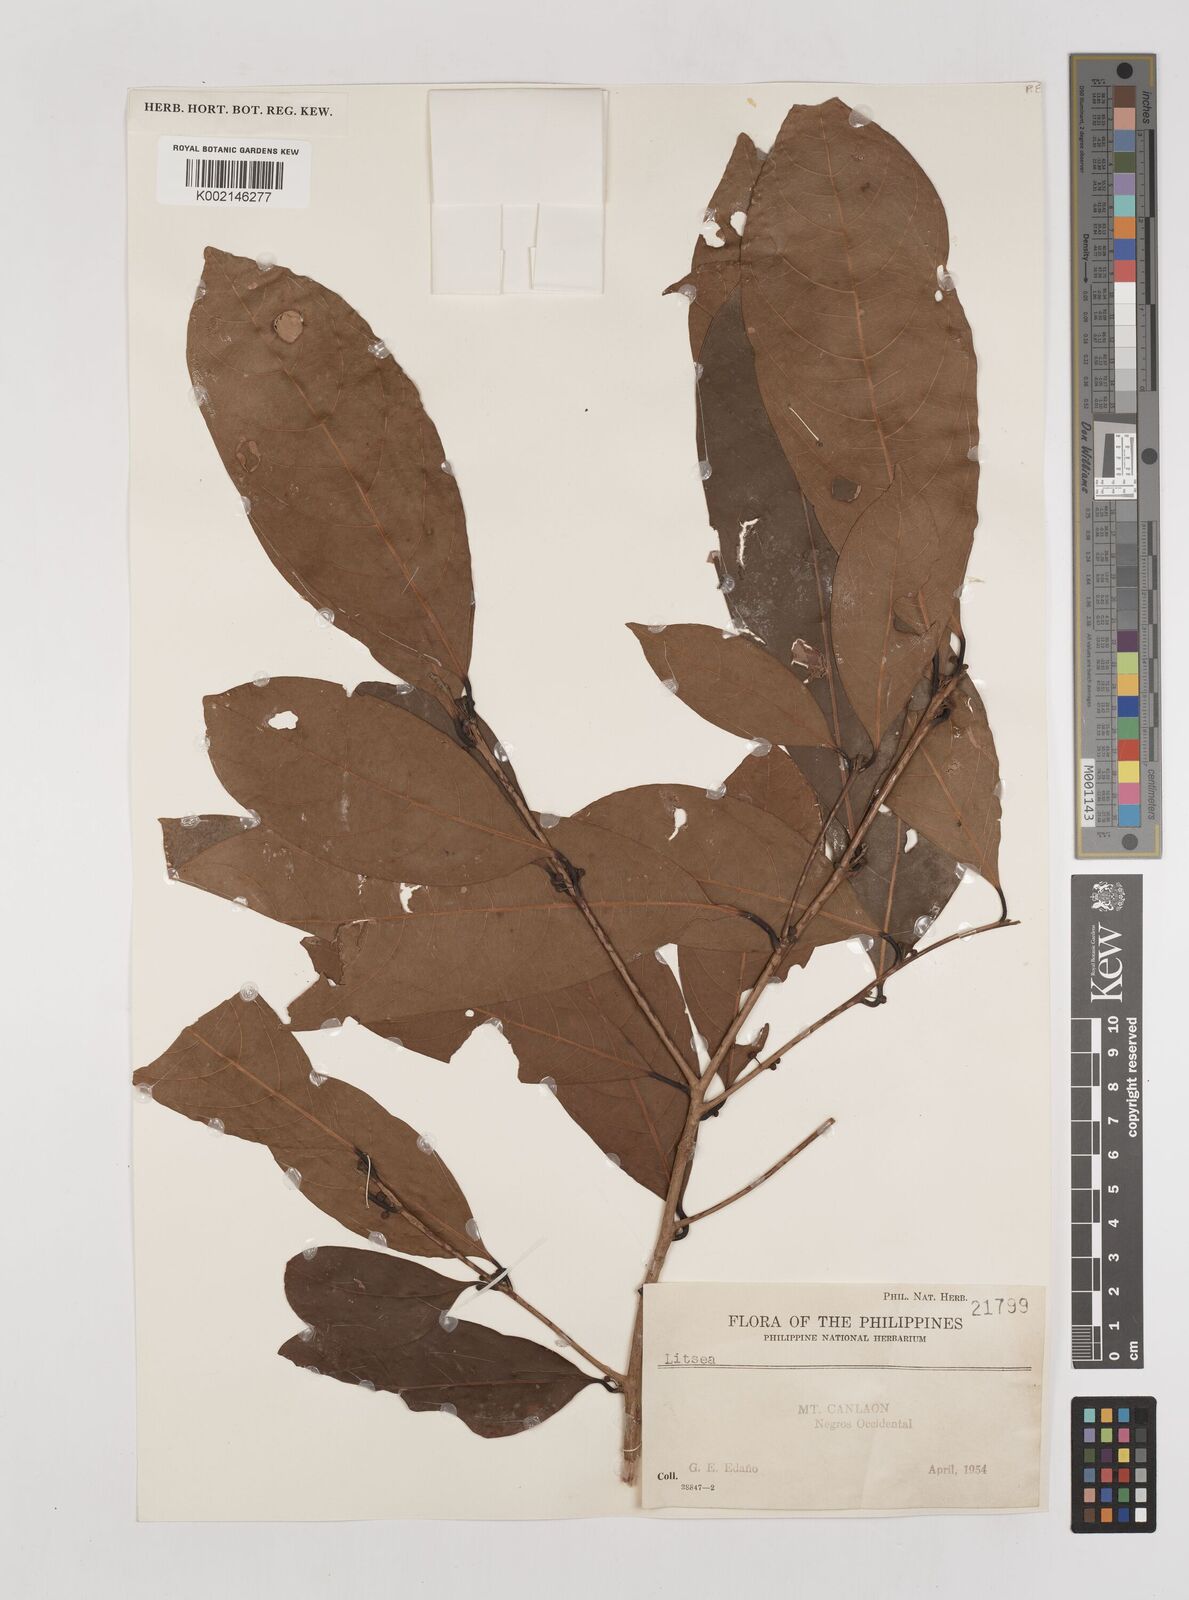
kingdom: Plantae
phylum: Tracheophyta
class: Magnoliopsida
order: Laurales
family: Lauraceae
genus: Litsea
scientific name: Litsea
